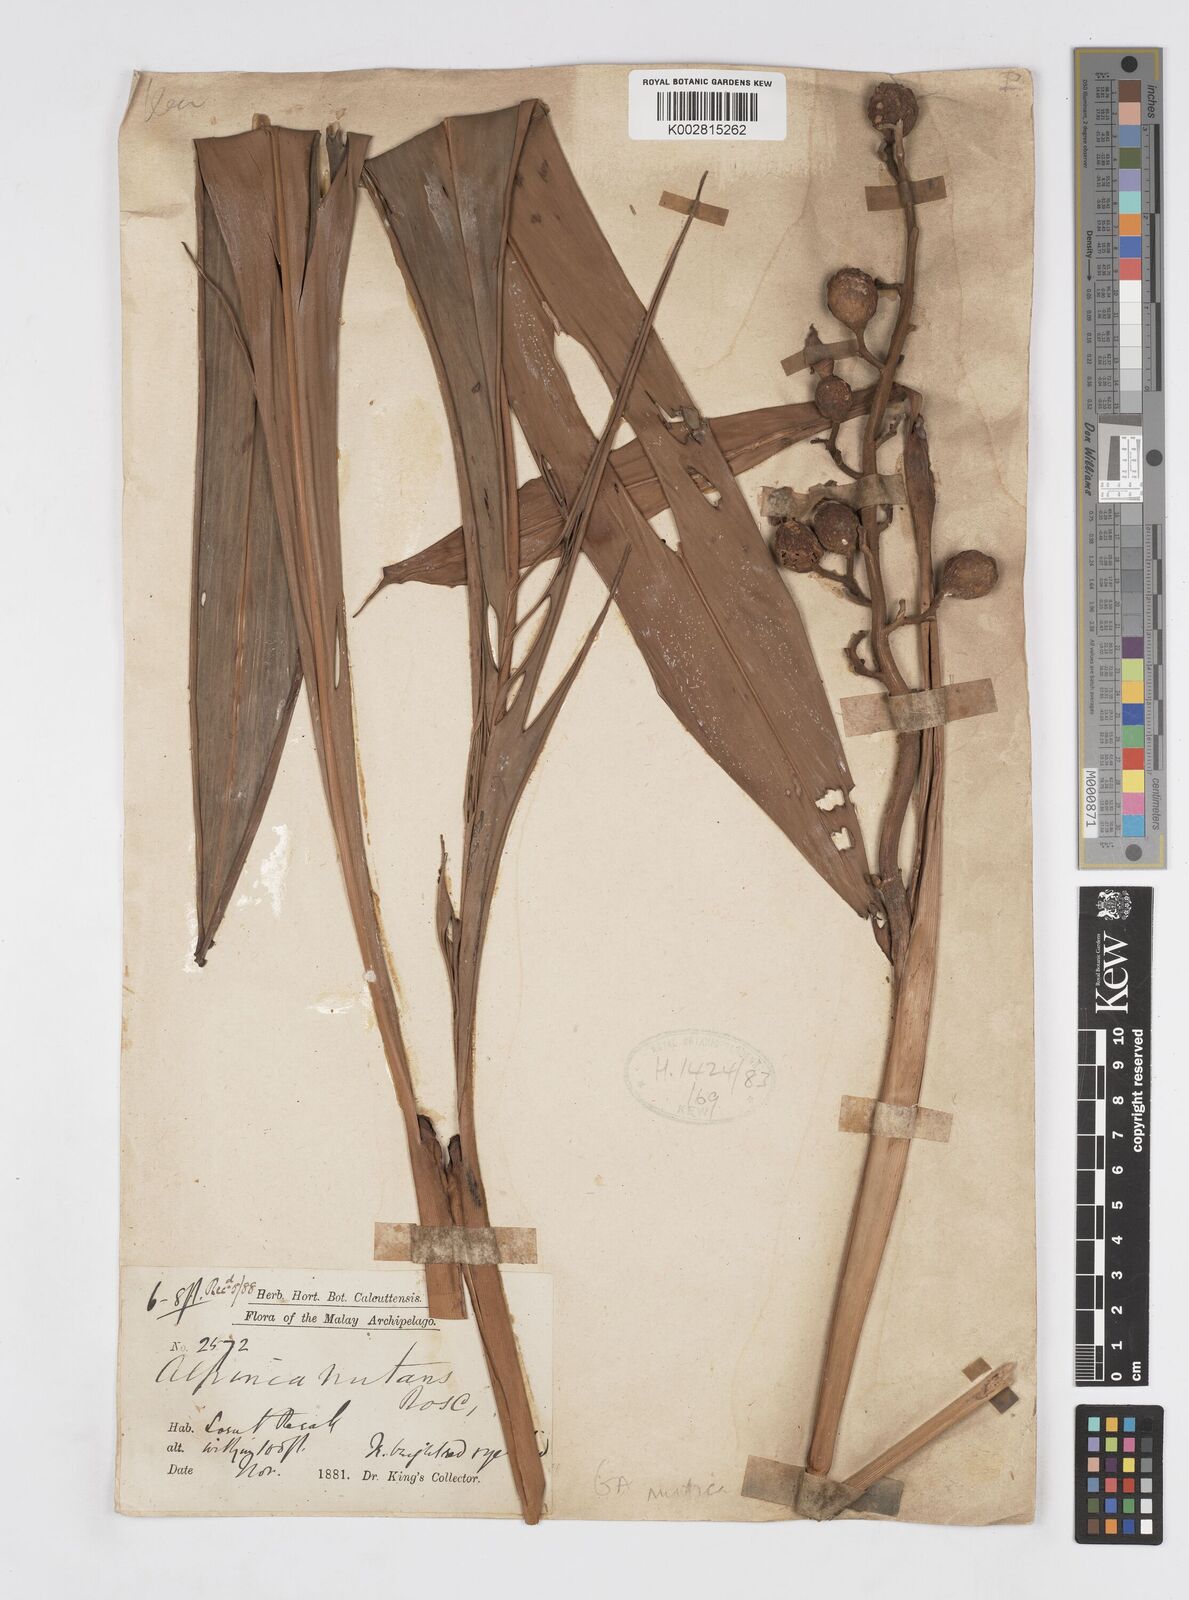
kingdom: Plantae
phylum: Tracheophyta
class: Liliopsida
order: Zingiberales
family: Zingiberaceae
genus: Alpinia
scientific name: Alpinia mutica
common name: Small shell ginger
